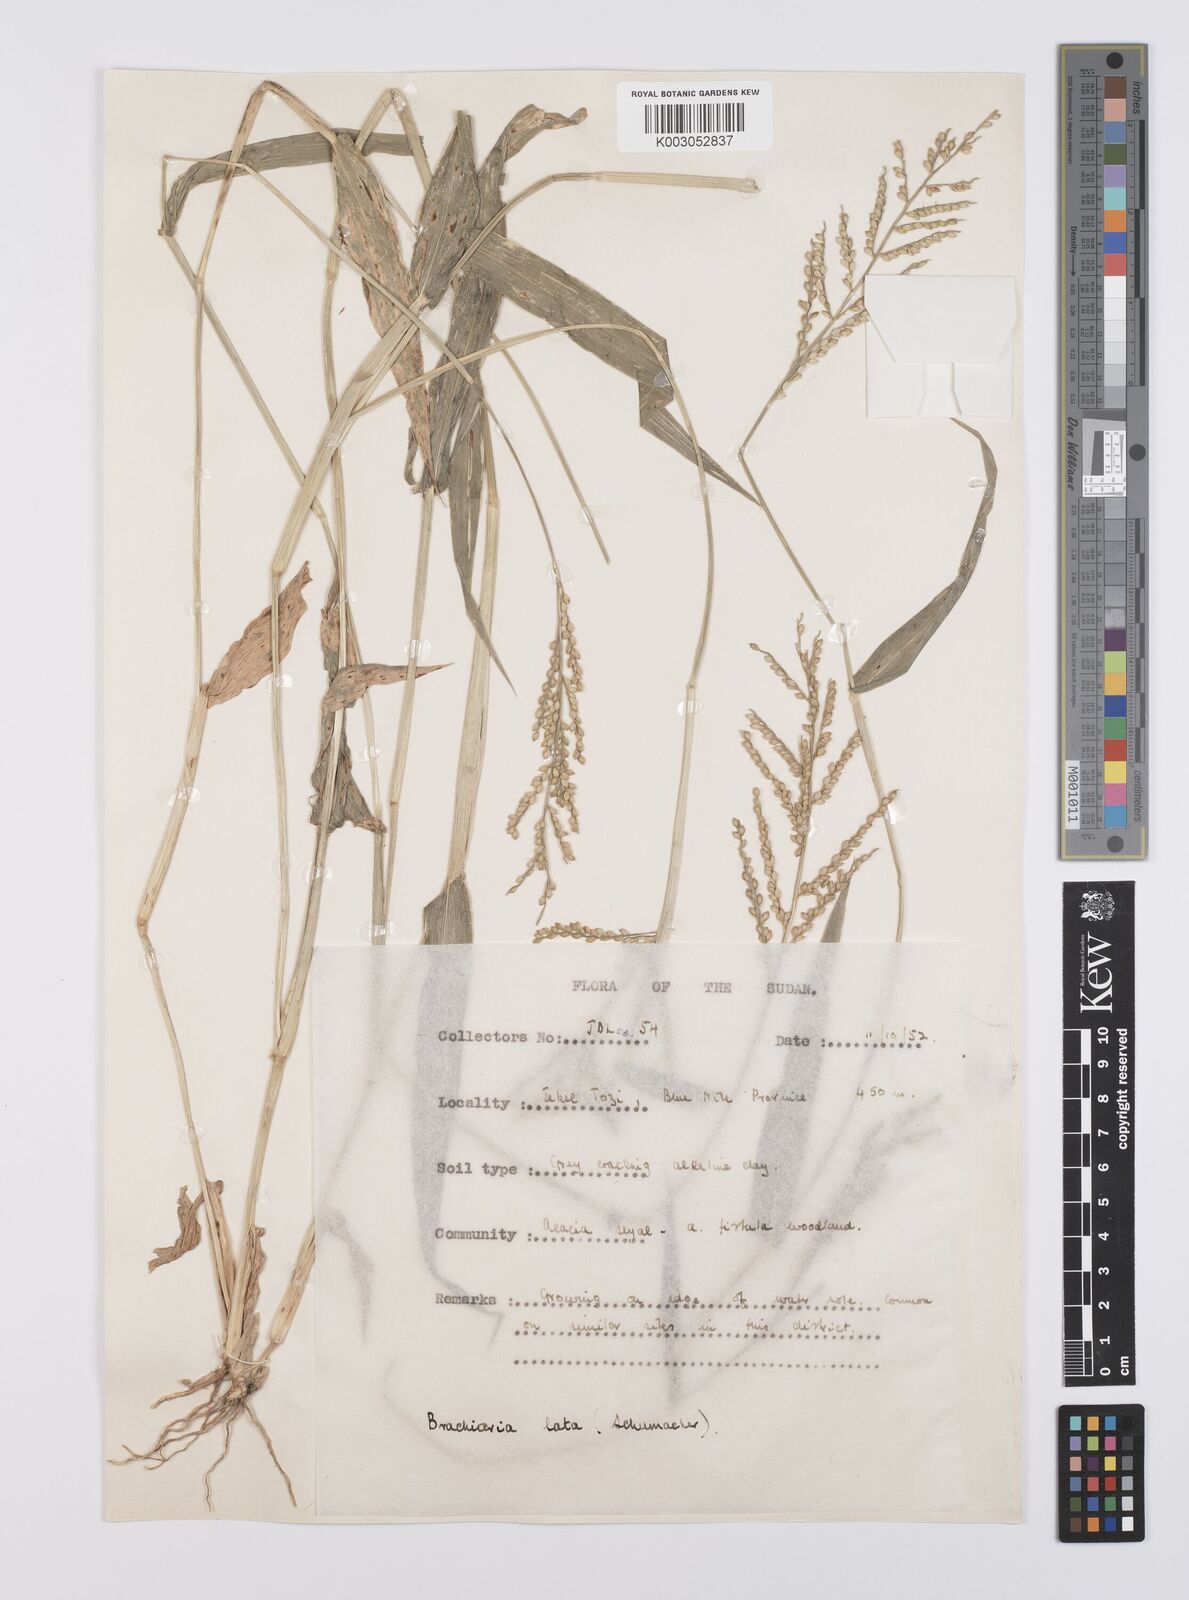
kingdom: Plantae
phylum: Tracheophyta
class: Liliopsida
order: Poales
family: Poaceae
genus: Urochloa
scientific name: Urochloa lata
